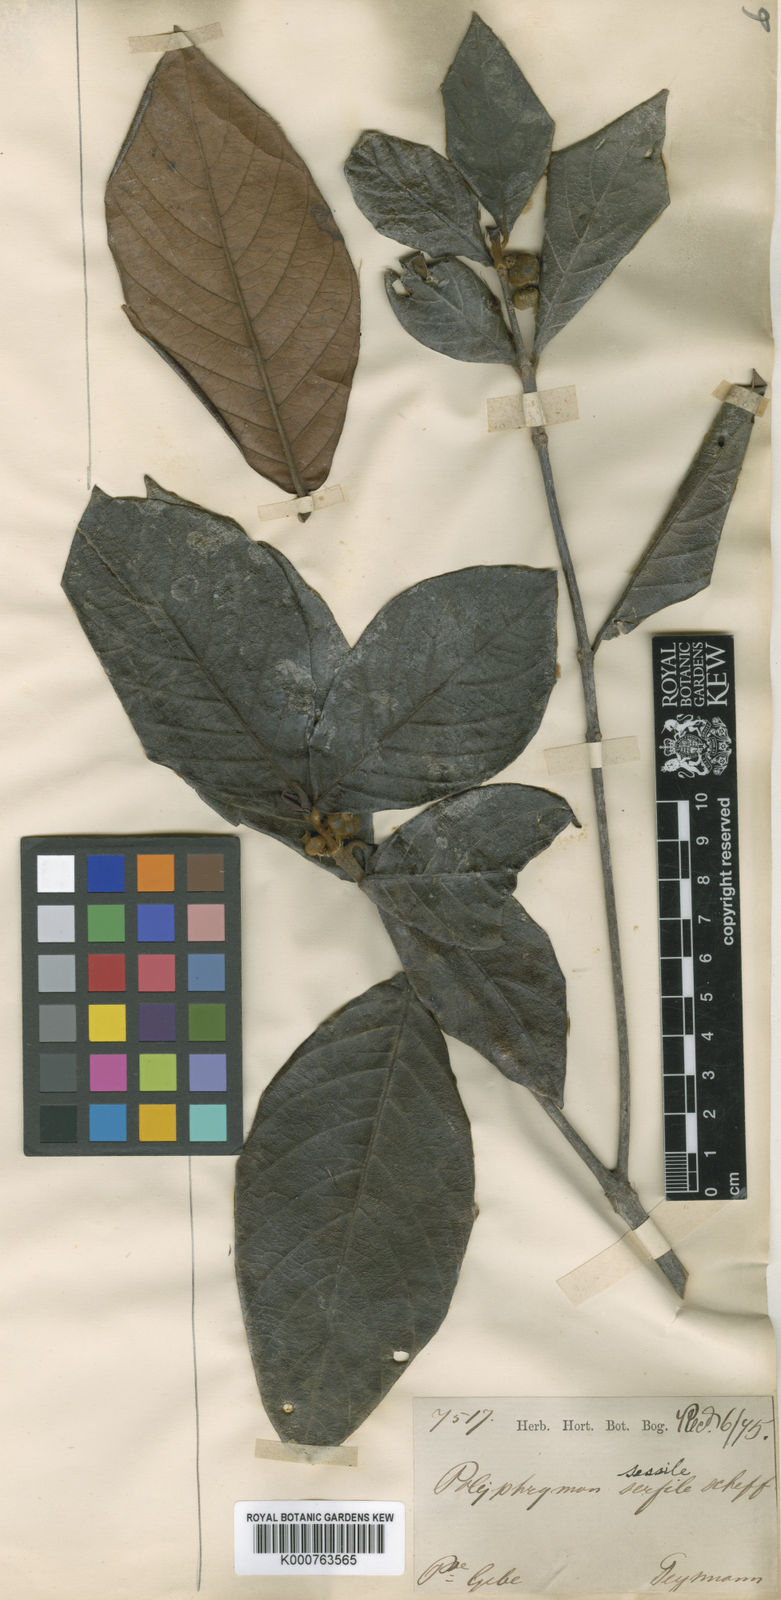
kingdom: Plantae
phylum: Tracheophyta
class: Magnoliopsida
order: Gentianales
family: Rubiaceae
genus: Timonius
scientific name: Timonius sessilis
